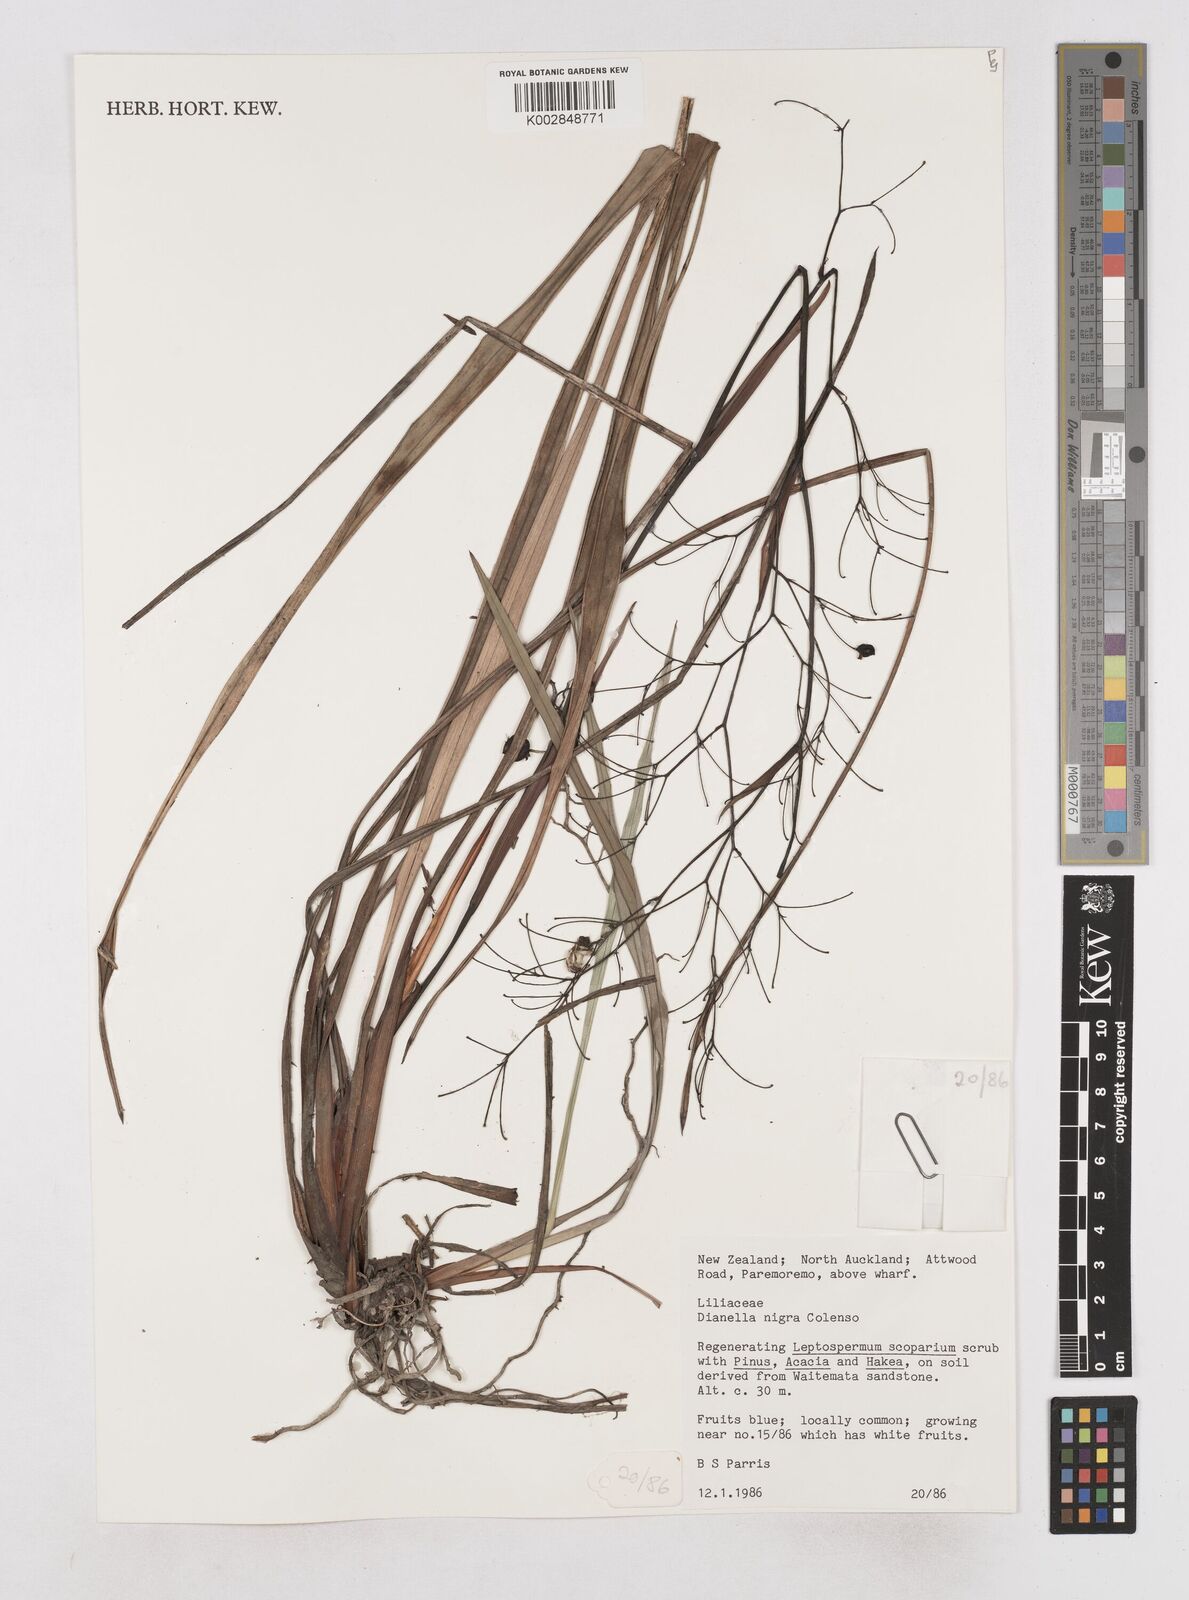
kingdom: Plantae
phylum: Tracheophyta
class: Liliopsida
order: Asparagales
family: Asphodelaceae
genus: Dianella
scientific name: Dianella nigra
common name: New zealand-blueberry
